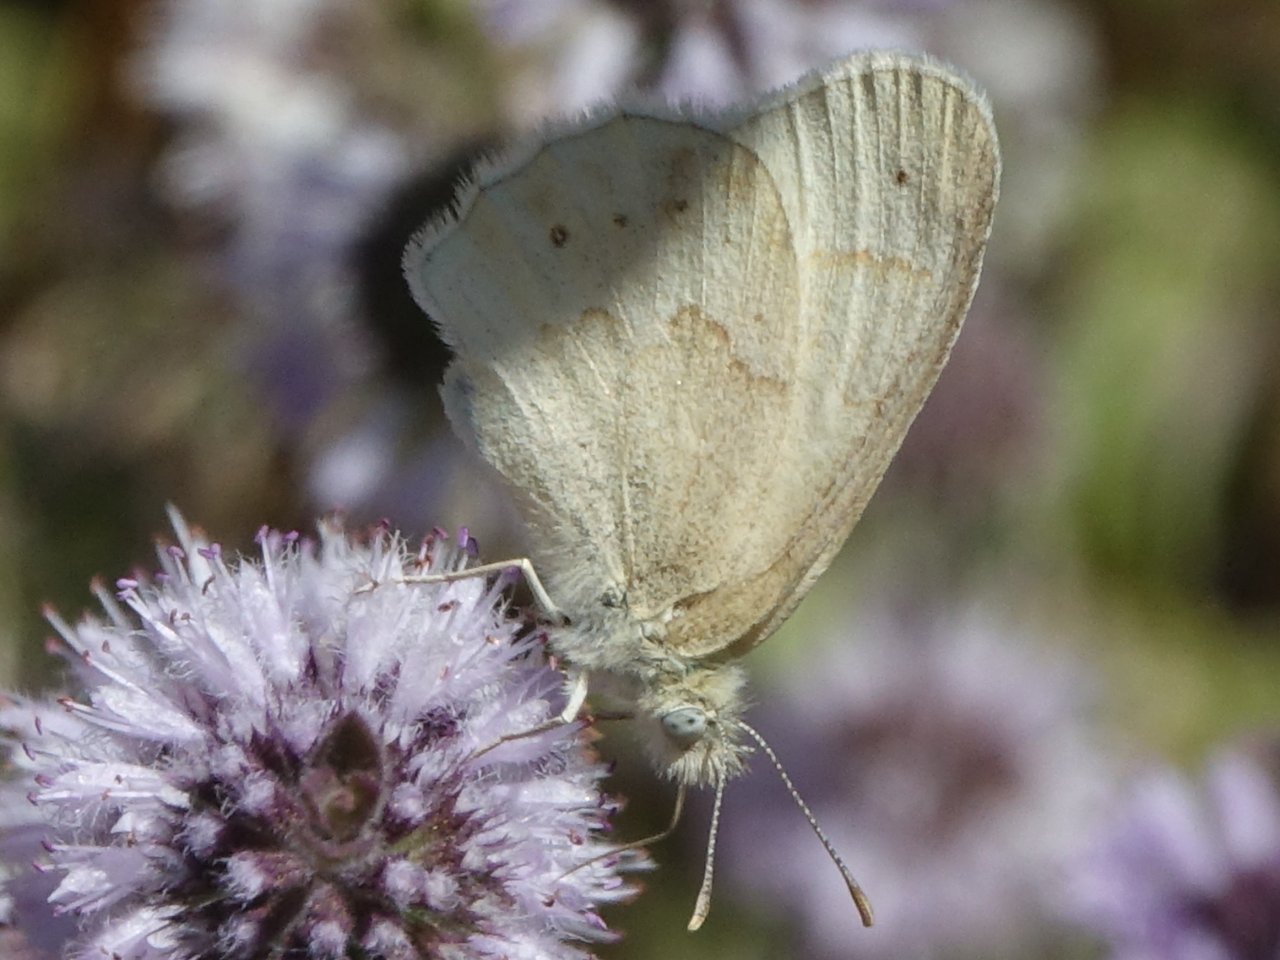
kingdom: Animalia
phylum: Arthropoda
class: Insecta
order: Lepidoptera
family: Nymphalidae
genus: Coenonympha
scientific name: Coenonympha tullia
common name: Large Heath
